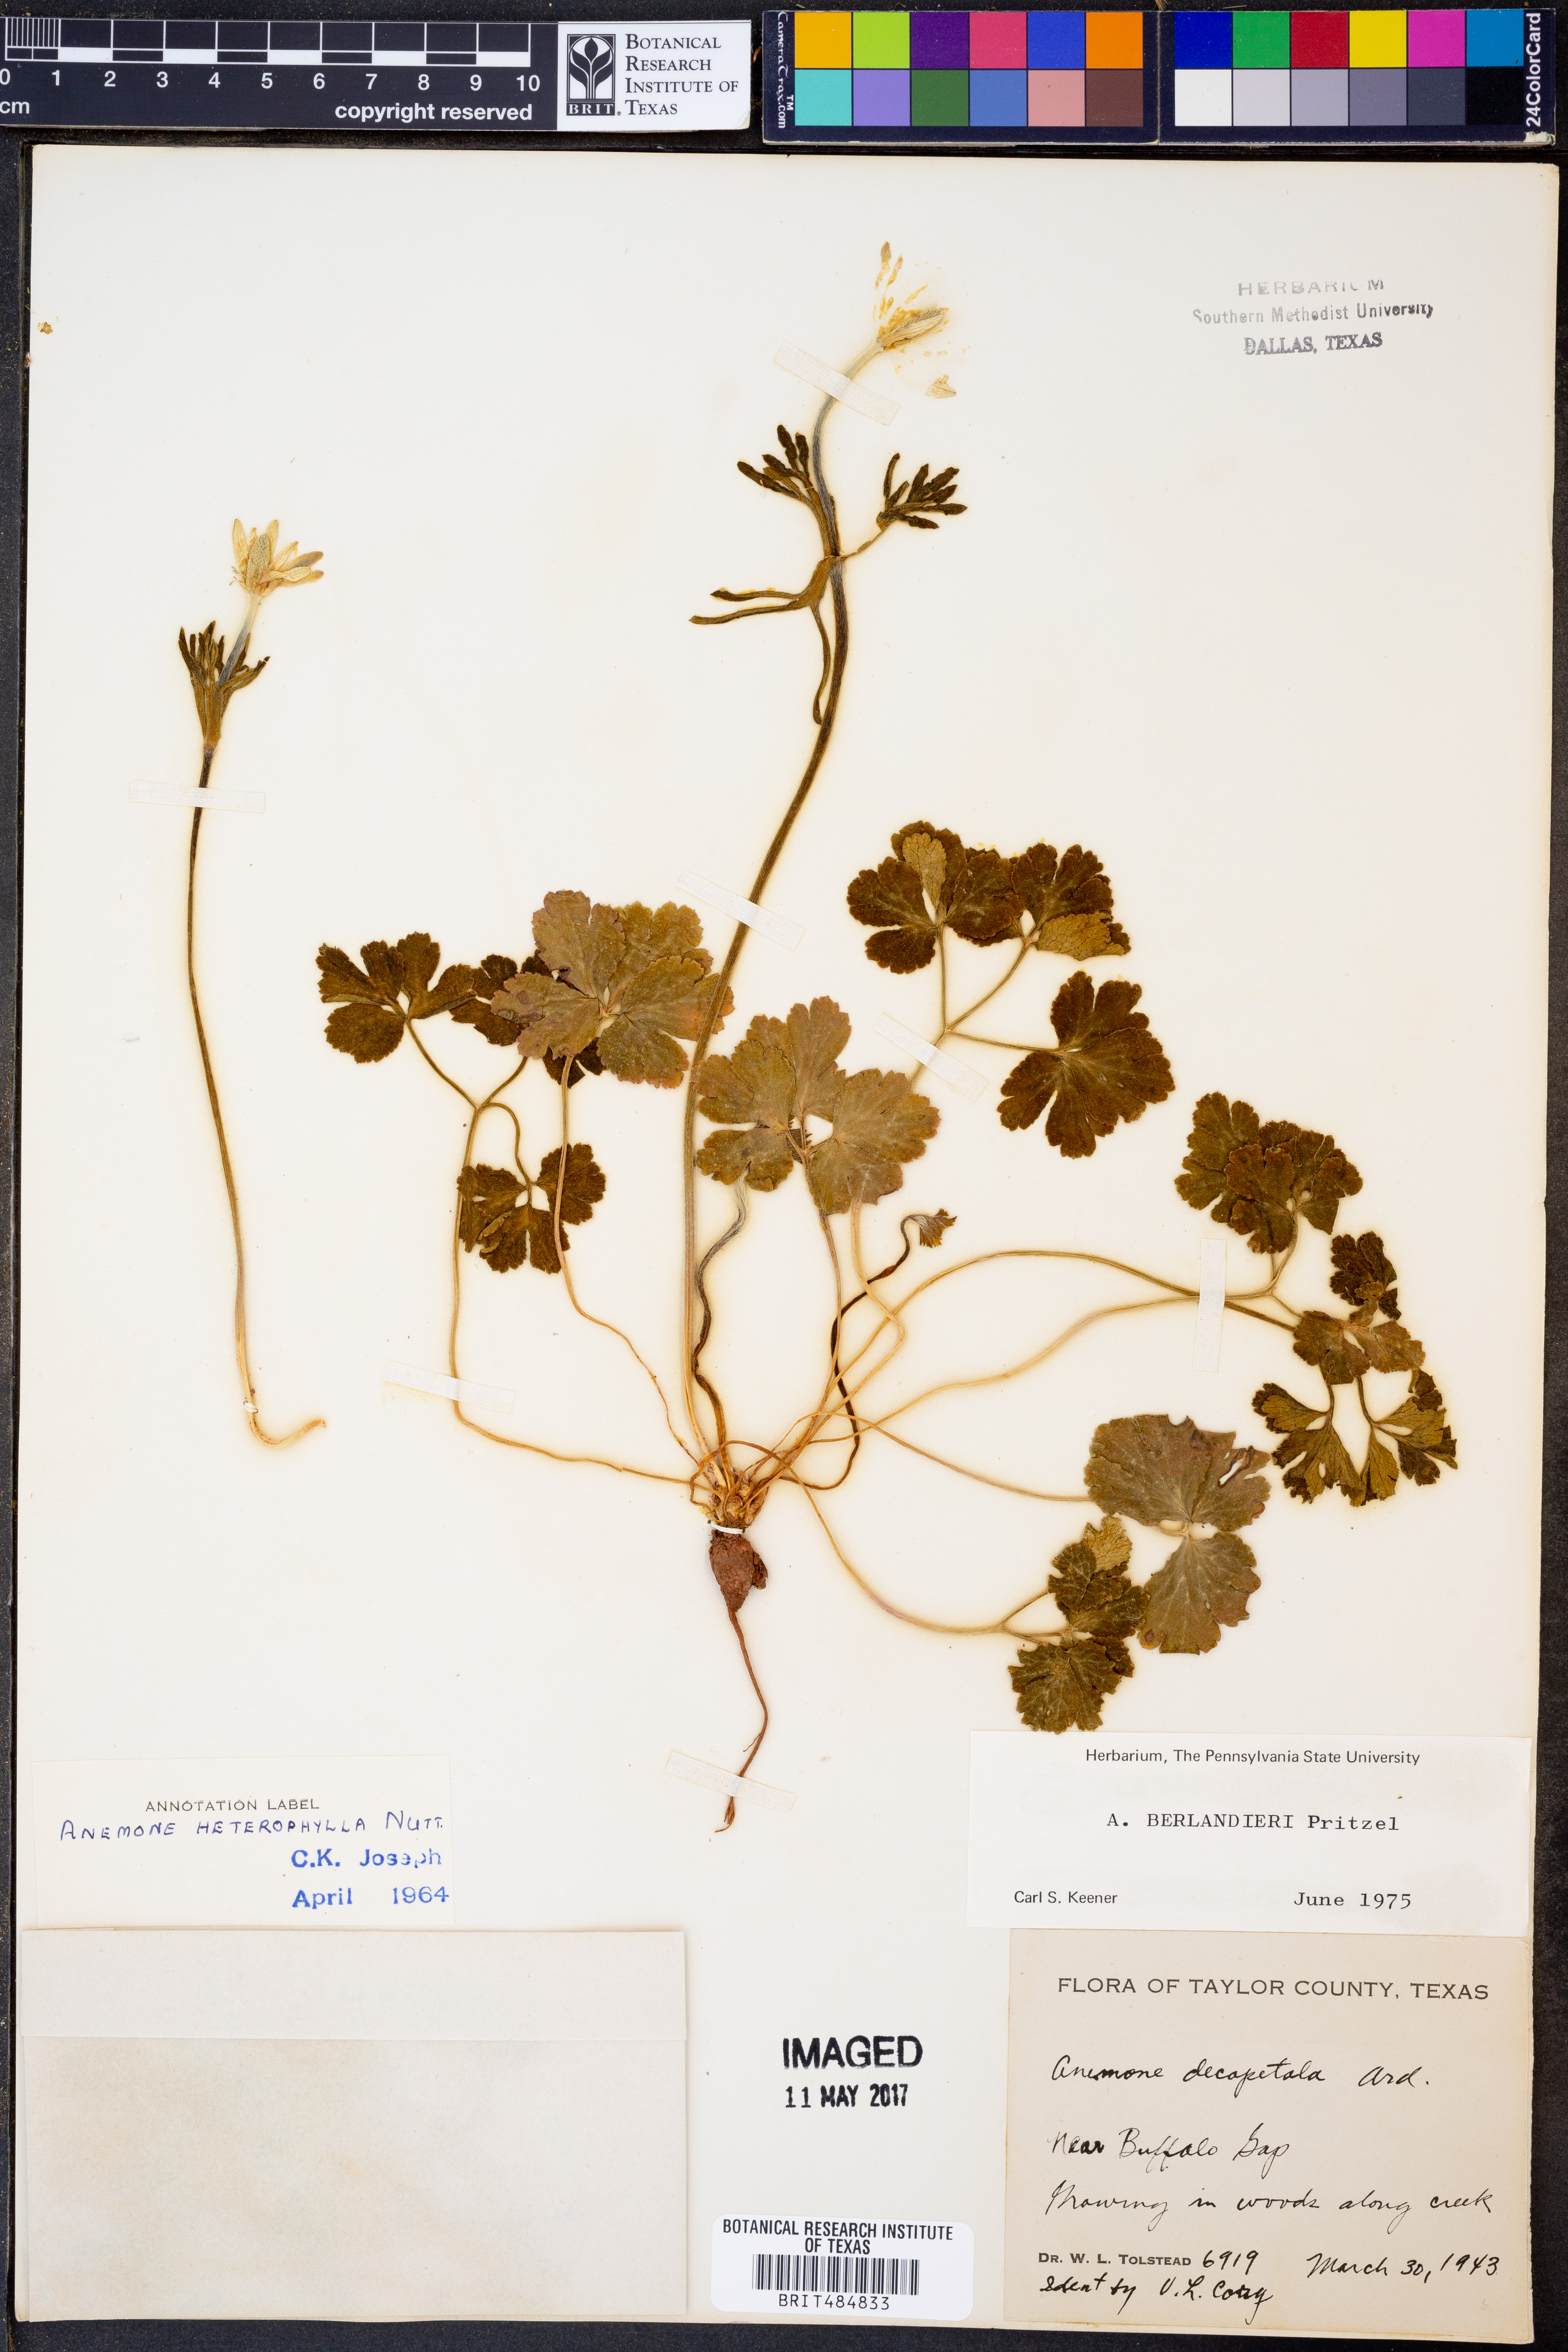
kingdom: Plantae
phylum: Tracheophyta
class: Magnoliopsida
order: Ranunculales
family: Ranunculaceae
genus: Anemone
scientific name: Anemone berlandieri
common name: Ten-petal anemone
